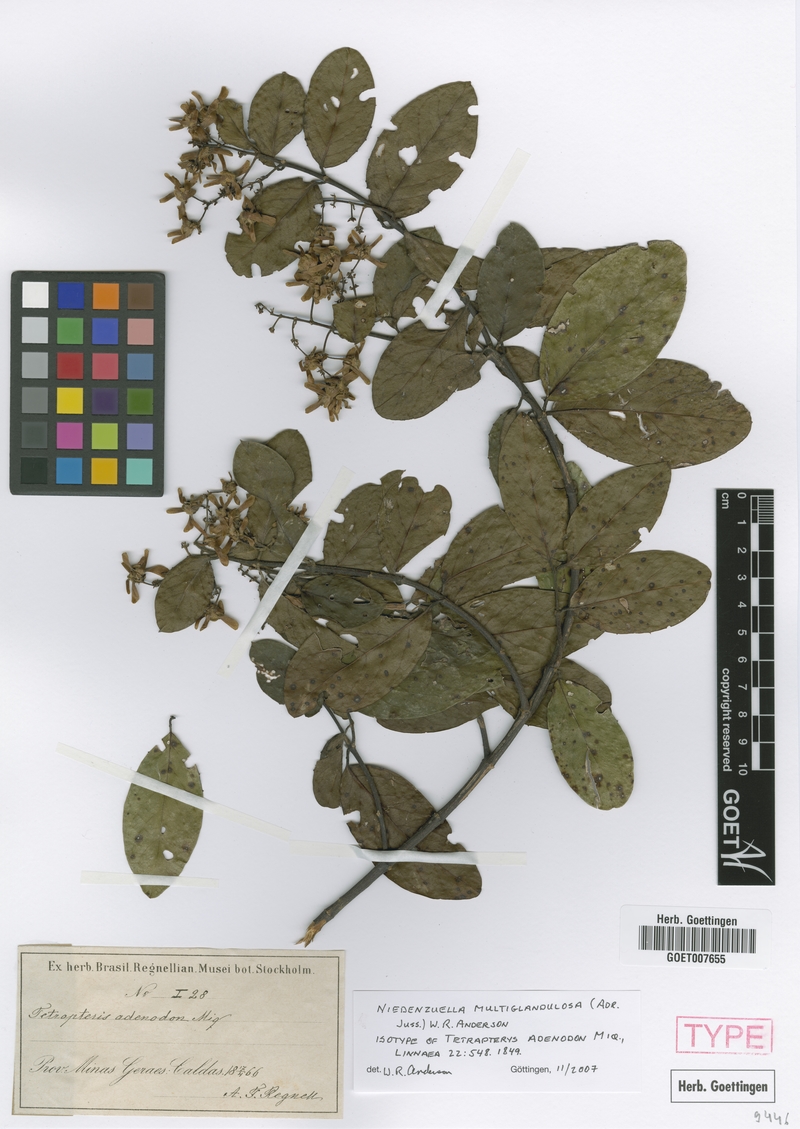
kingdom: Plantae
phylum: Tracheophyta
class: Magnoliopsida
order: Malpighiales
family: Malpighiaceae
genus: Niedenzuella
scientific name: Niedenzuella multiglandulosa
